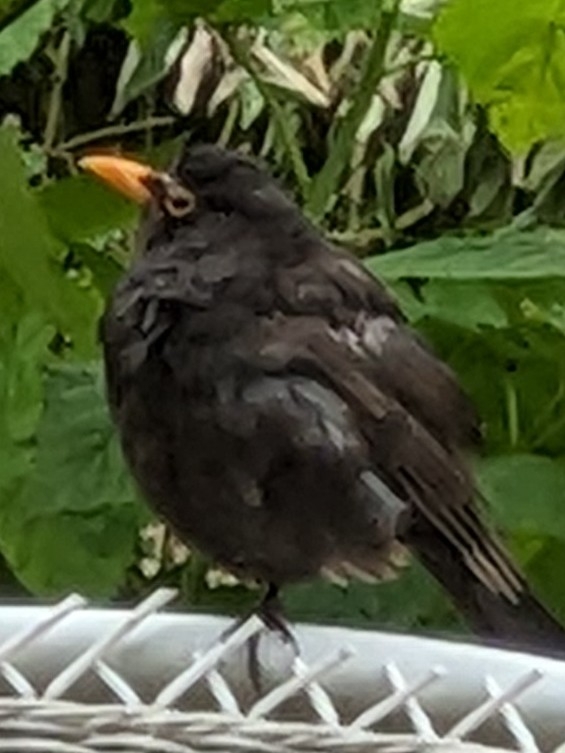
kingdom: Animalia
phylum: Chordata
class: Aves
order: Passeriformes
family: Turdidae
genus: Turdus
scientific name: Turdus merula
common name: Solsort
